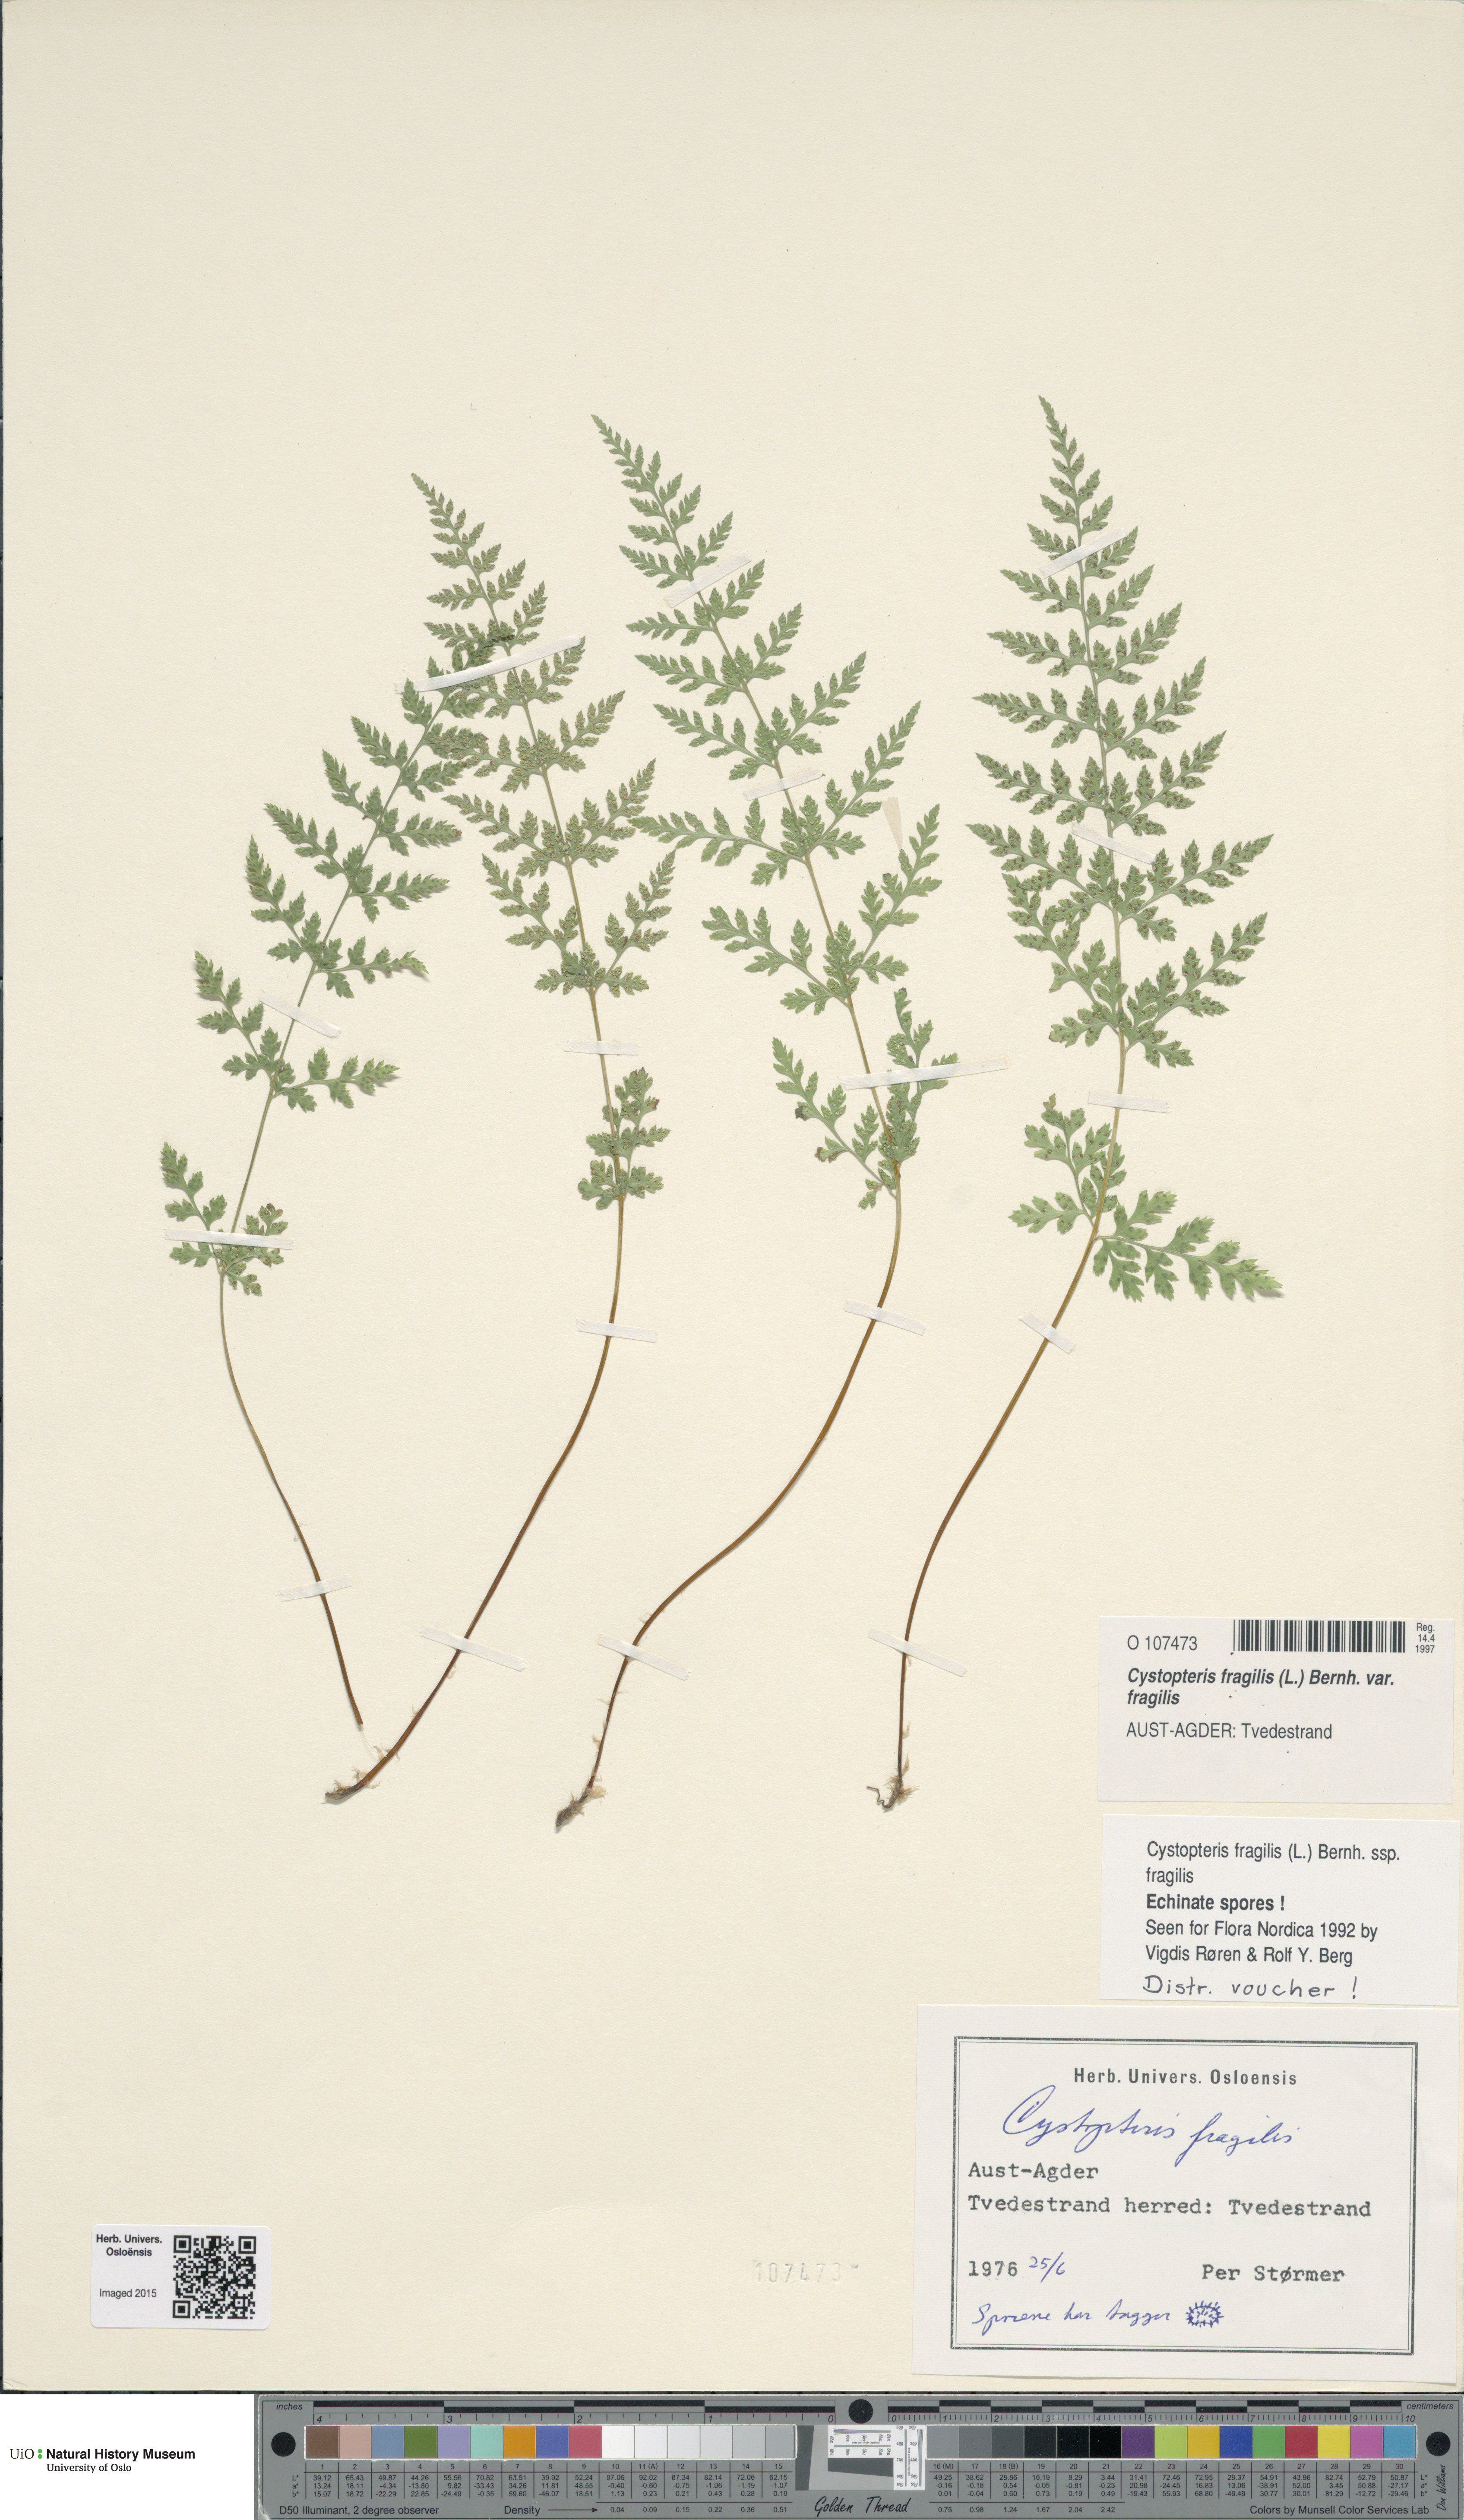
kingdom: Plantae
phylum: Tracheophyta
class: Polypodiopsida
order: Polypodiales
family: Cystopteridaceae
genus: Cystopteris
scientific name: Cystopteris fragilis
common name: Brittle bladder fern
